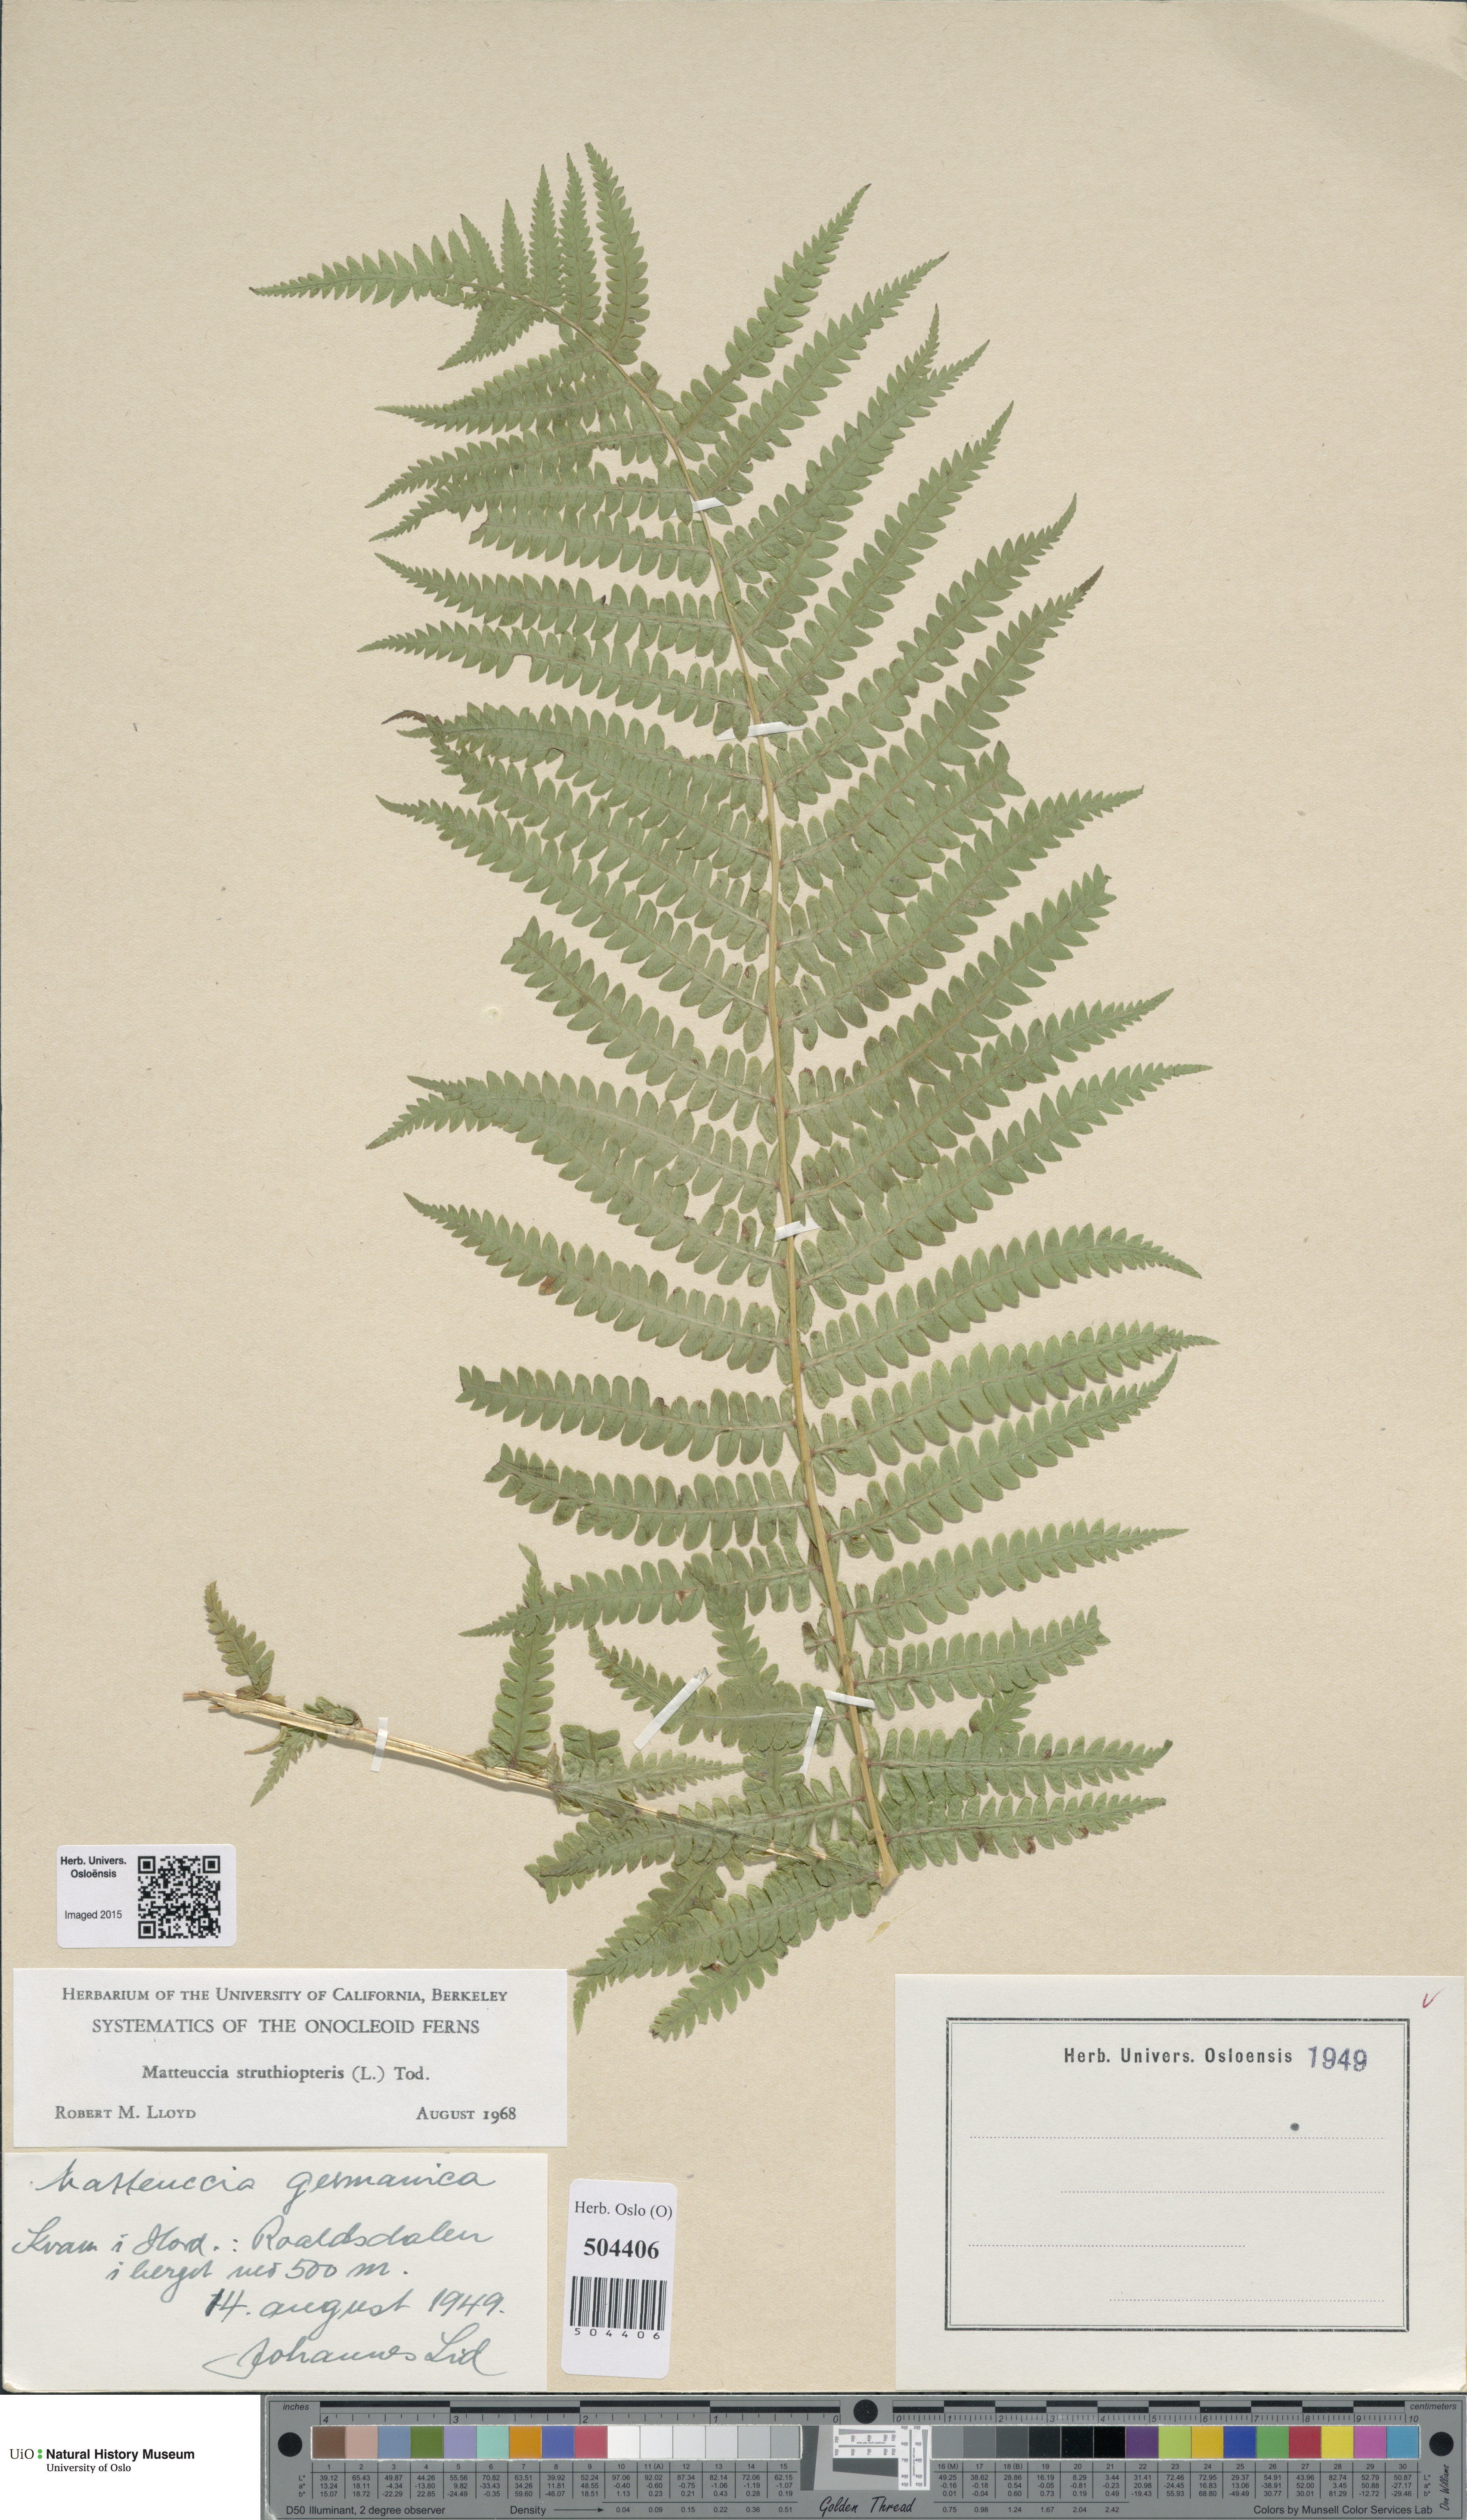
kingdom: Plantae
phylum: Tracheophyta
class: Polypodiopsida
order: Polypodiales
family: Onocleaceae
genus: Matteuccia
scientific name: Matteuccia struthiopteris
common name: Ostrich fern
